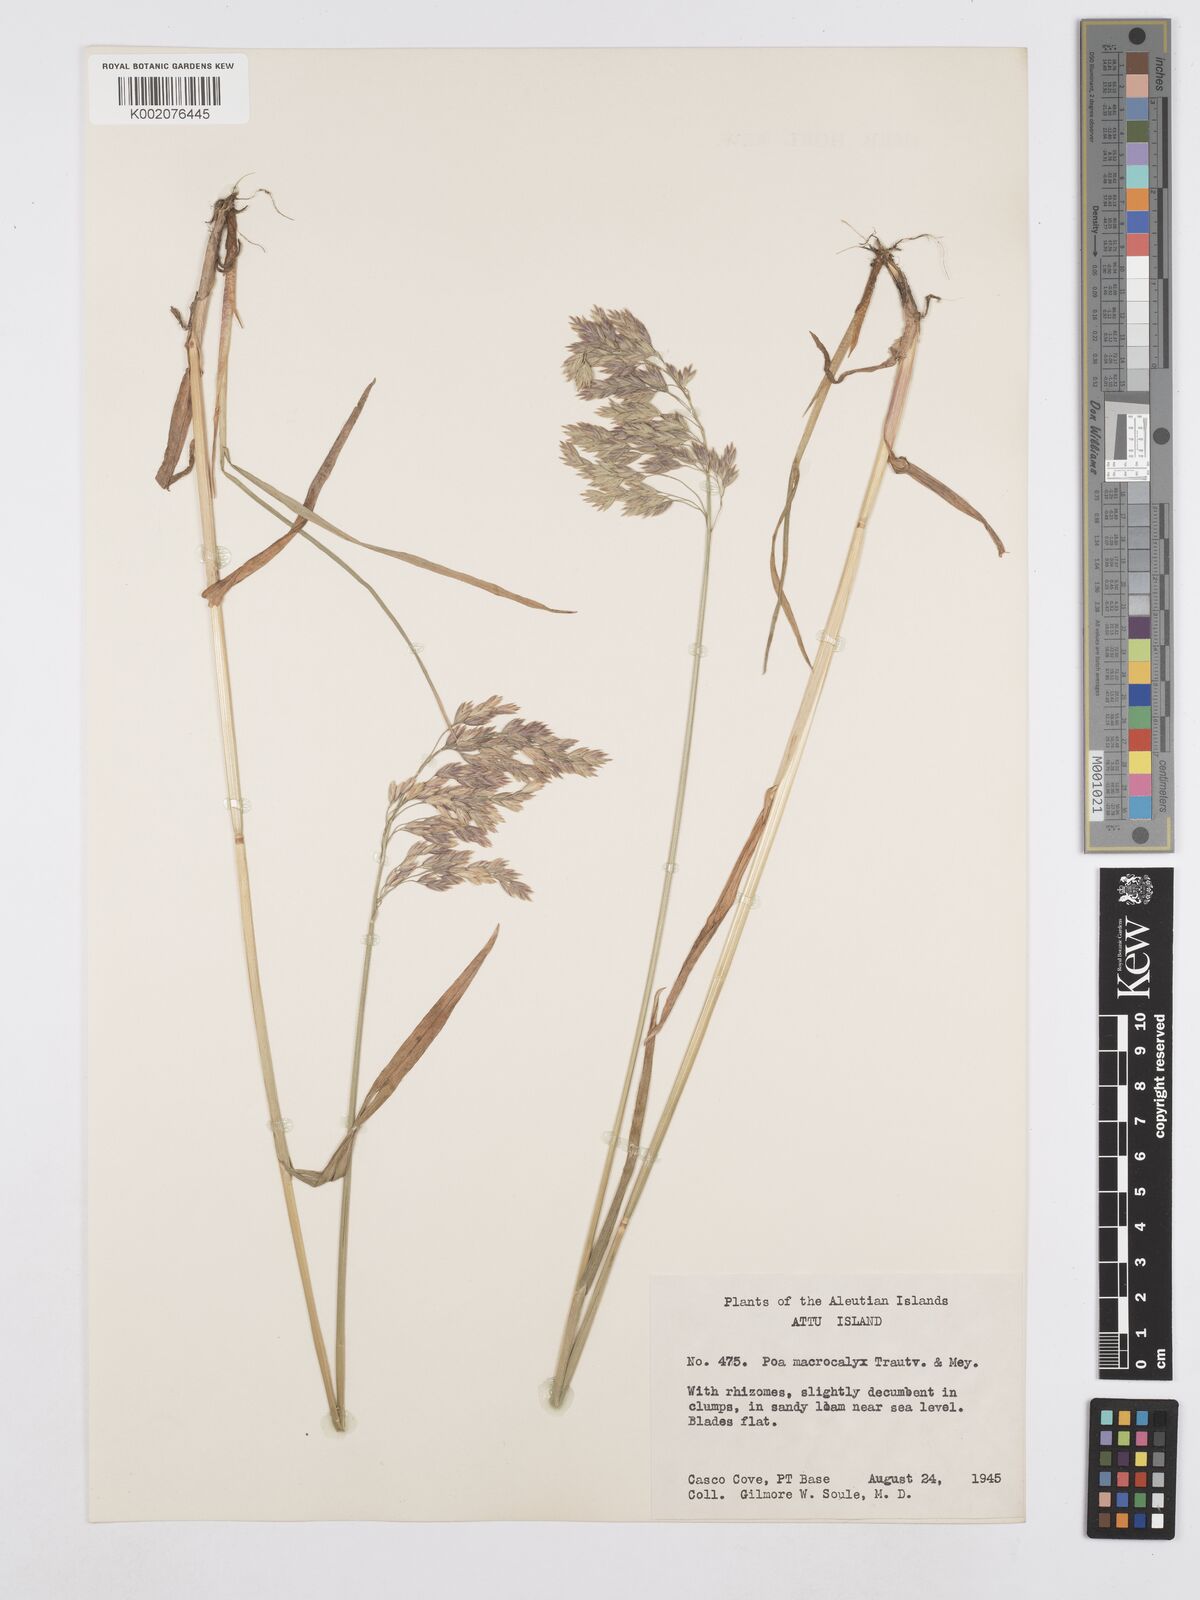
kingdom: Plantae
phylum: Tracheophyta
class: Liliopsida
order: Poales
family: Poaceae
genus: Poa
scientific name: Poa macrocalyx
